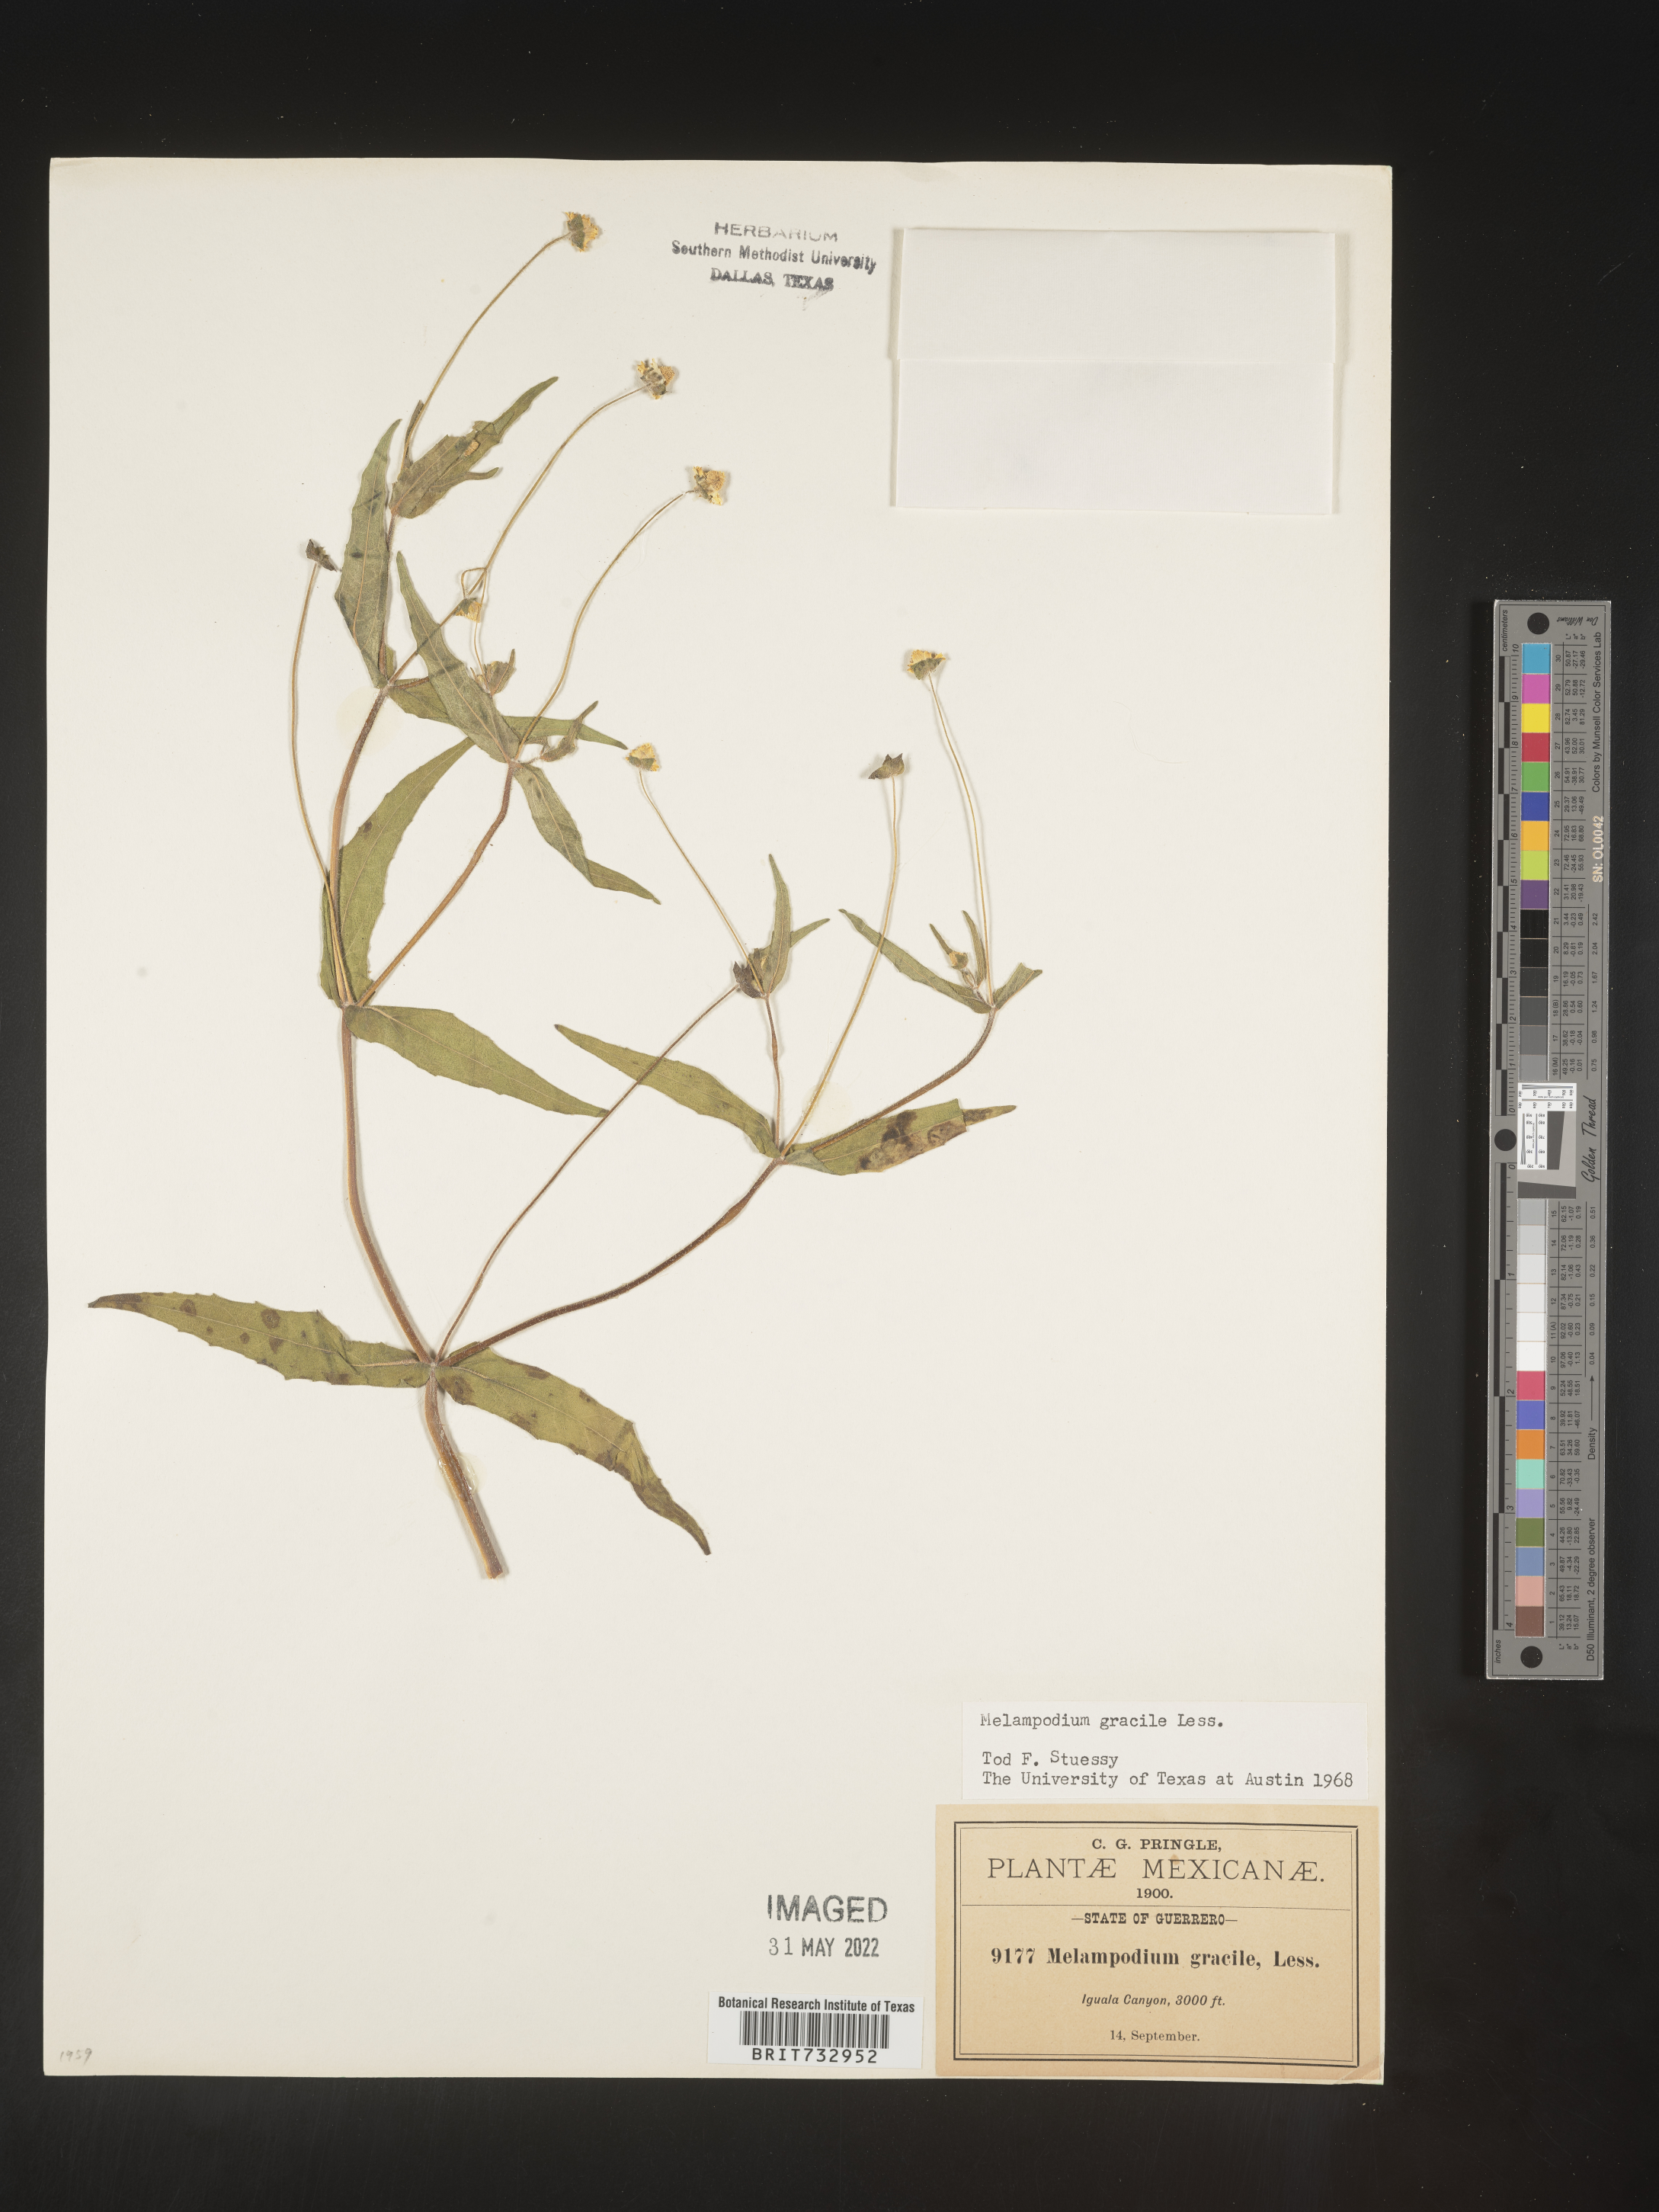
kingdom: Plantae
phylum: Tracheophyta
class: Magnoliopsida
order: Asterales
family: Asteraceae
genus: Melampodium
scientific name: Melampodium gracile
